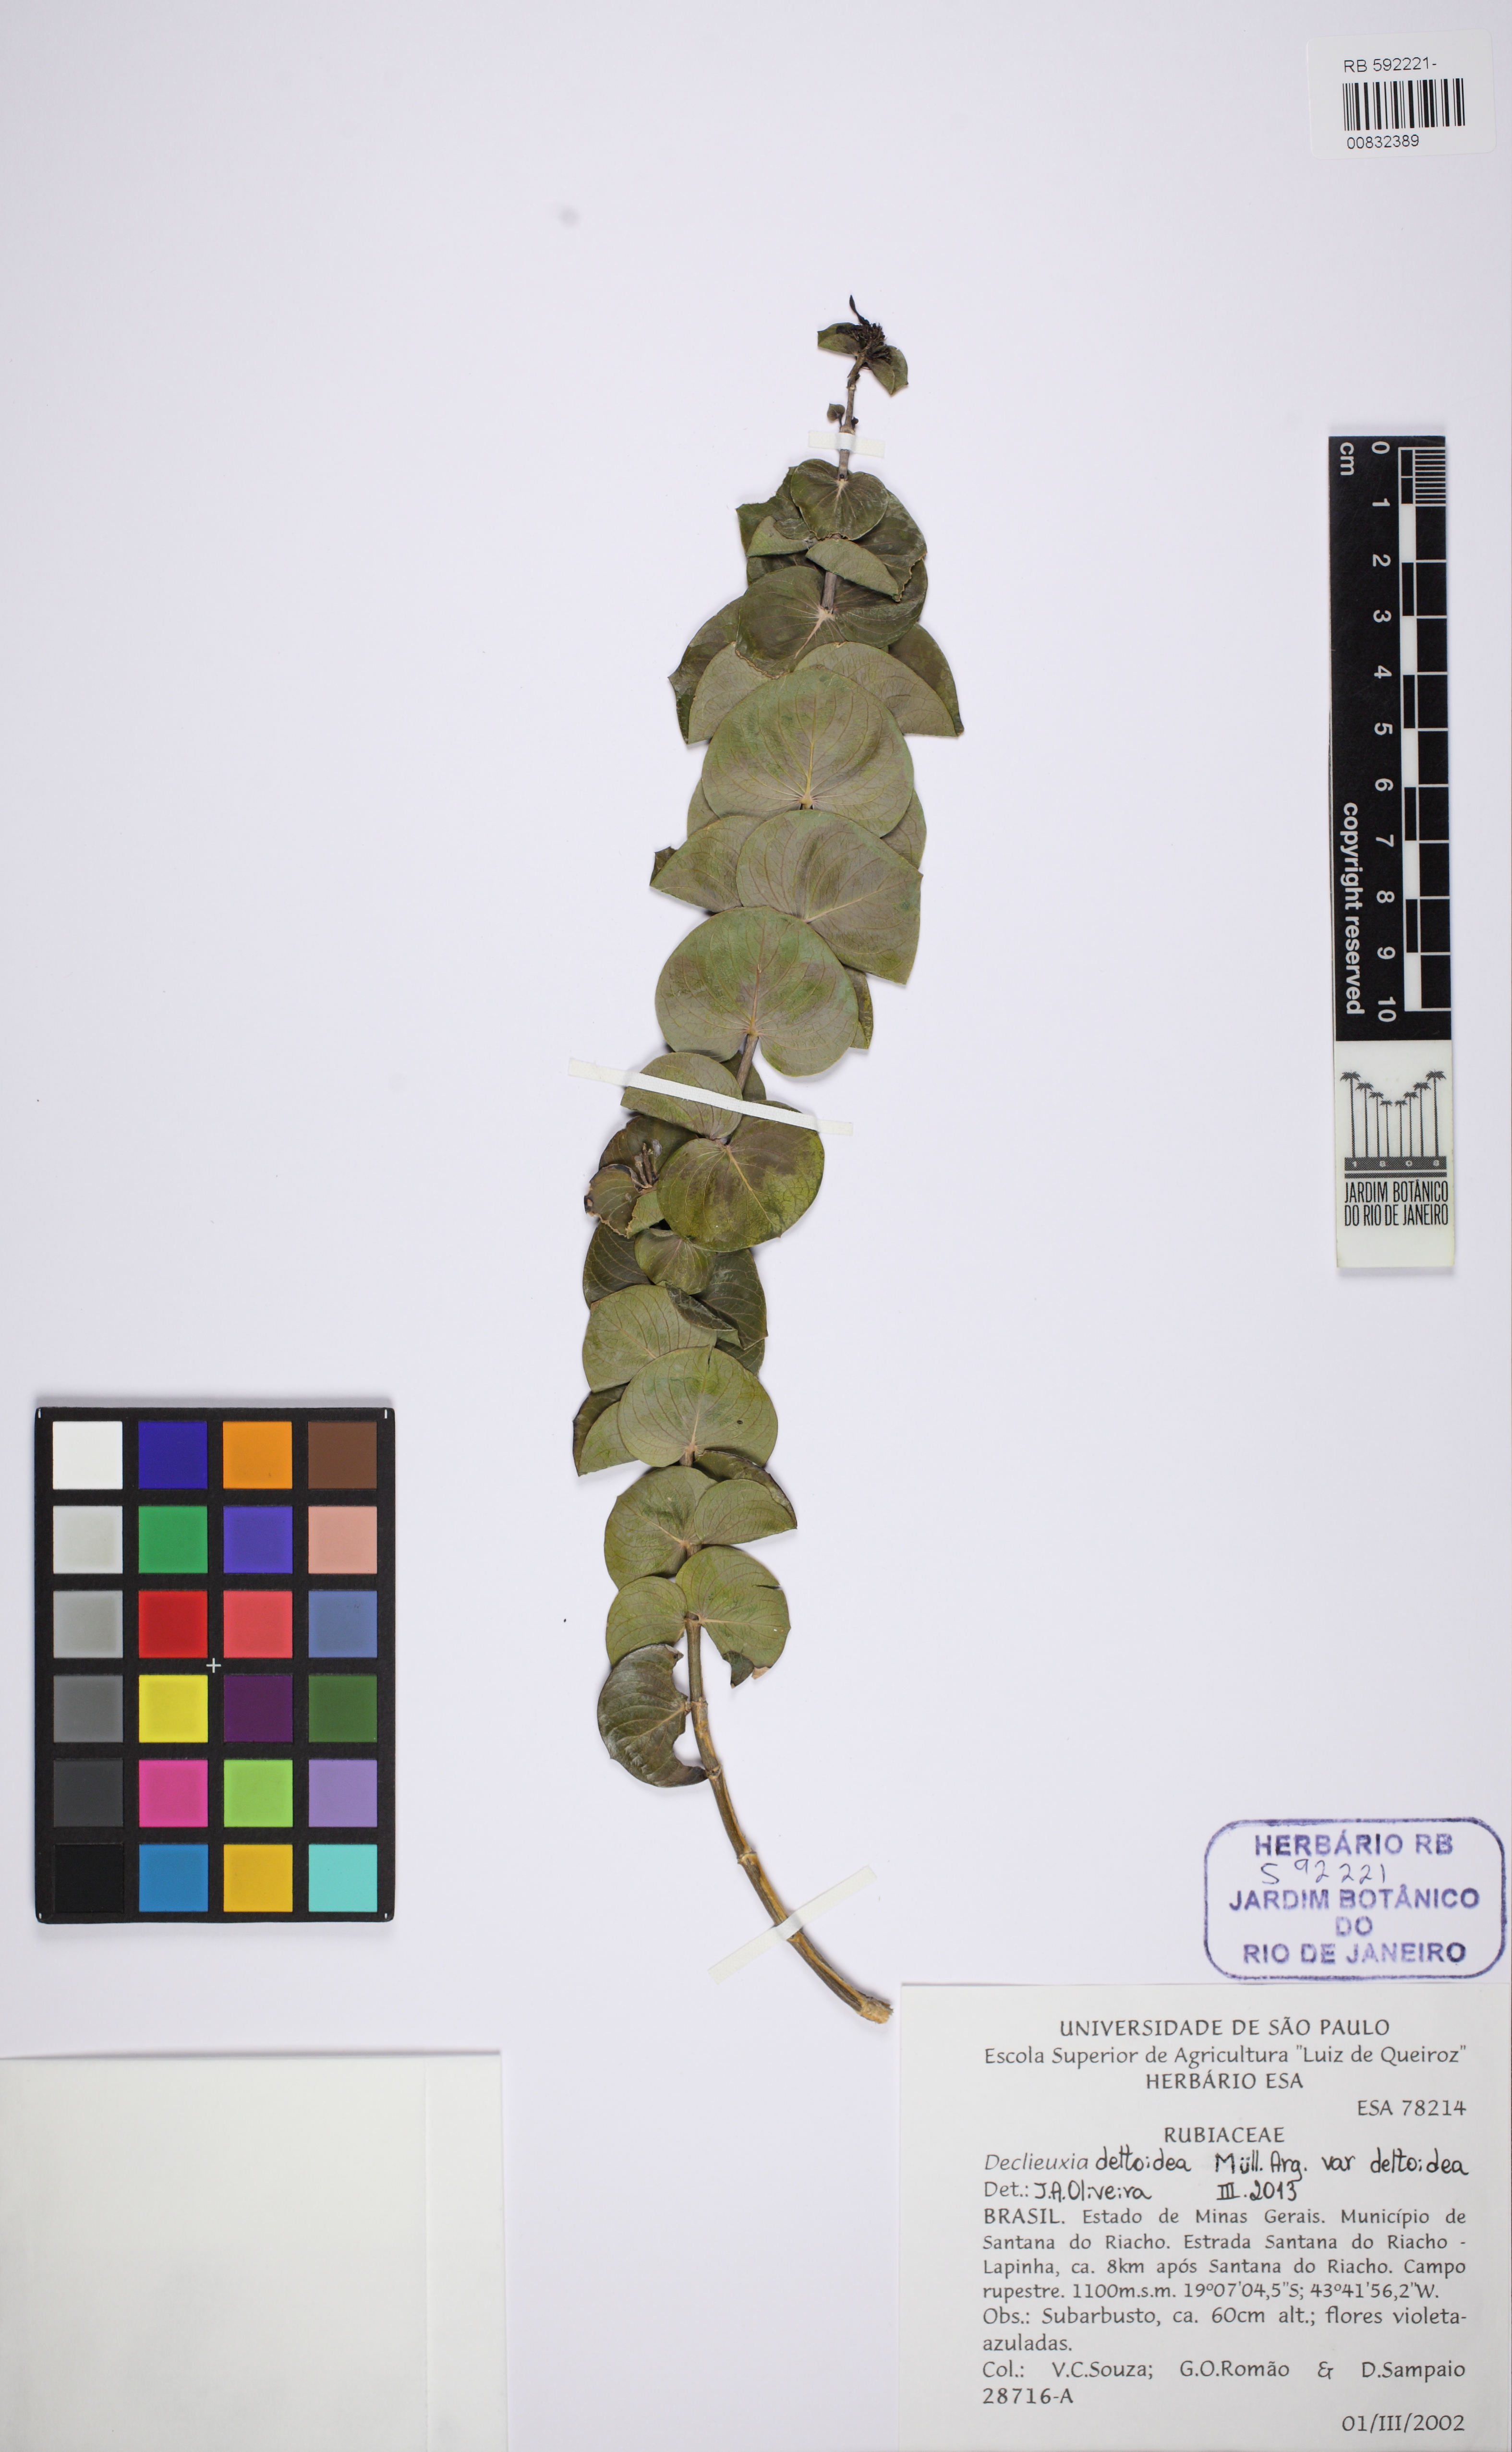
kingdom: Plantae
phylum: Tracheophyta
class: Magnoliopsida
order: Gentianales
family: Rubiaceae
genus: Declieuxia
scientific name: Declieuxia deltoidea
